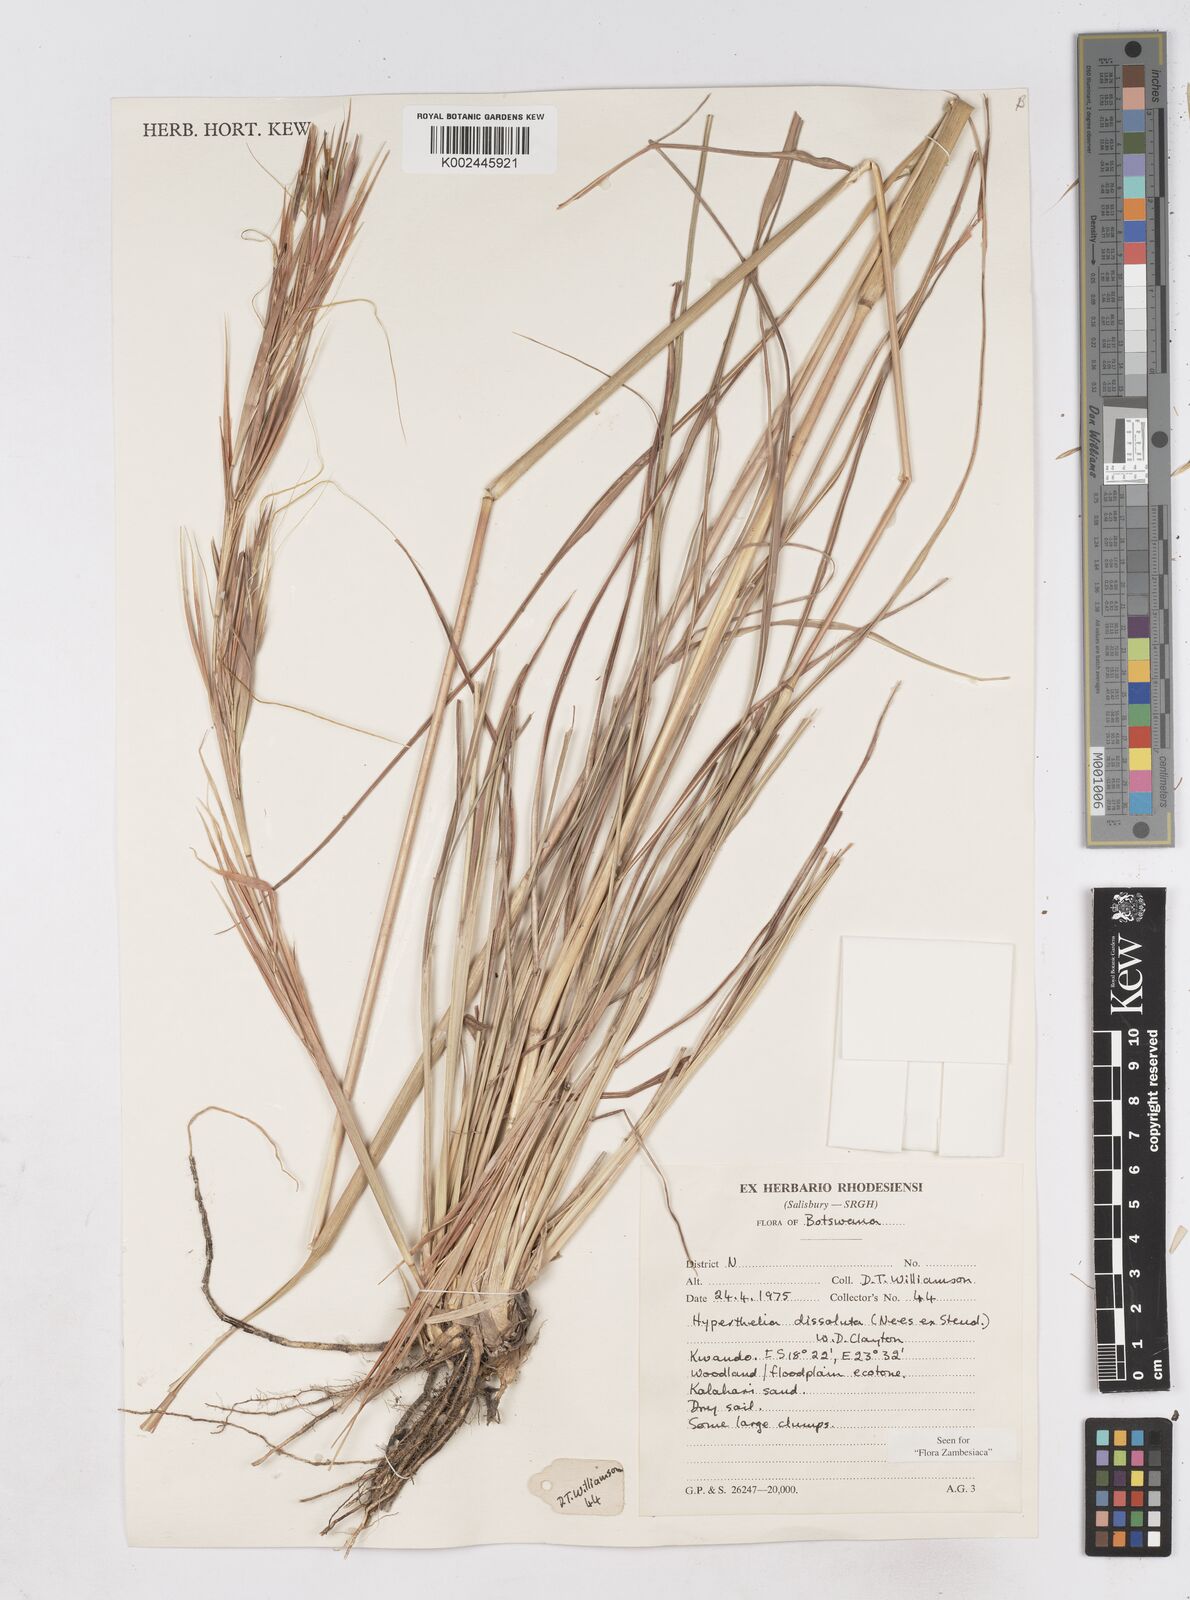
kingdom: Plantae
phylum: Tracheophyta
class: Liliopsida
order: Poales
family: Poaceae
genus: Hyperthelia
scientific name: Hyperthelia dissoluta
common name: Yellow thatching grass
